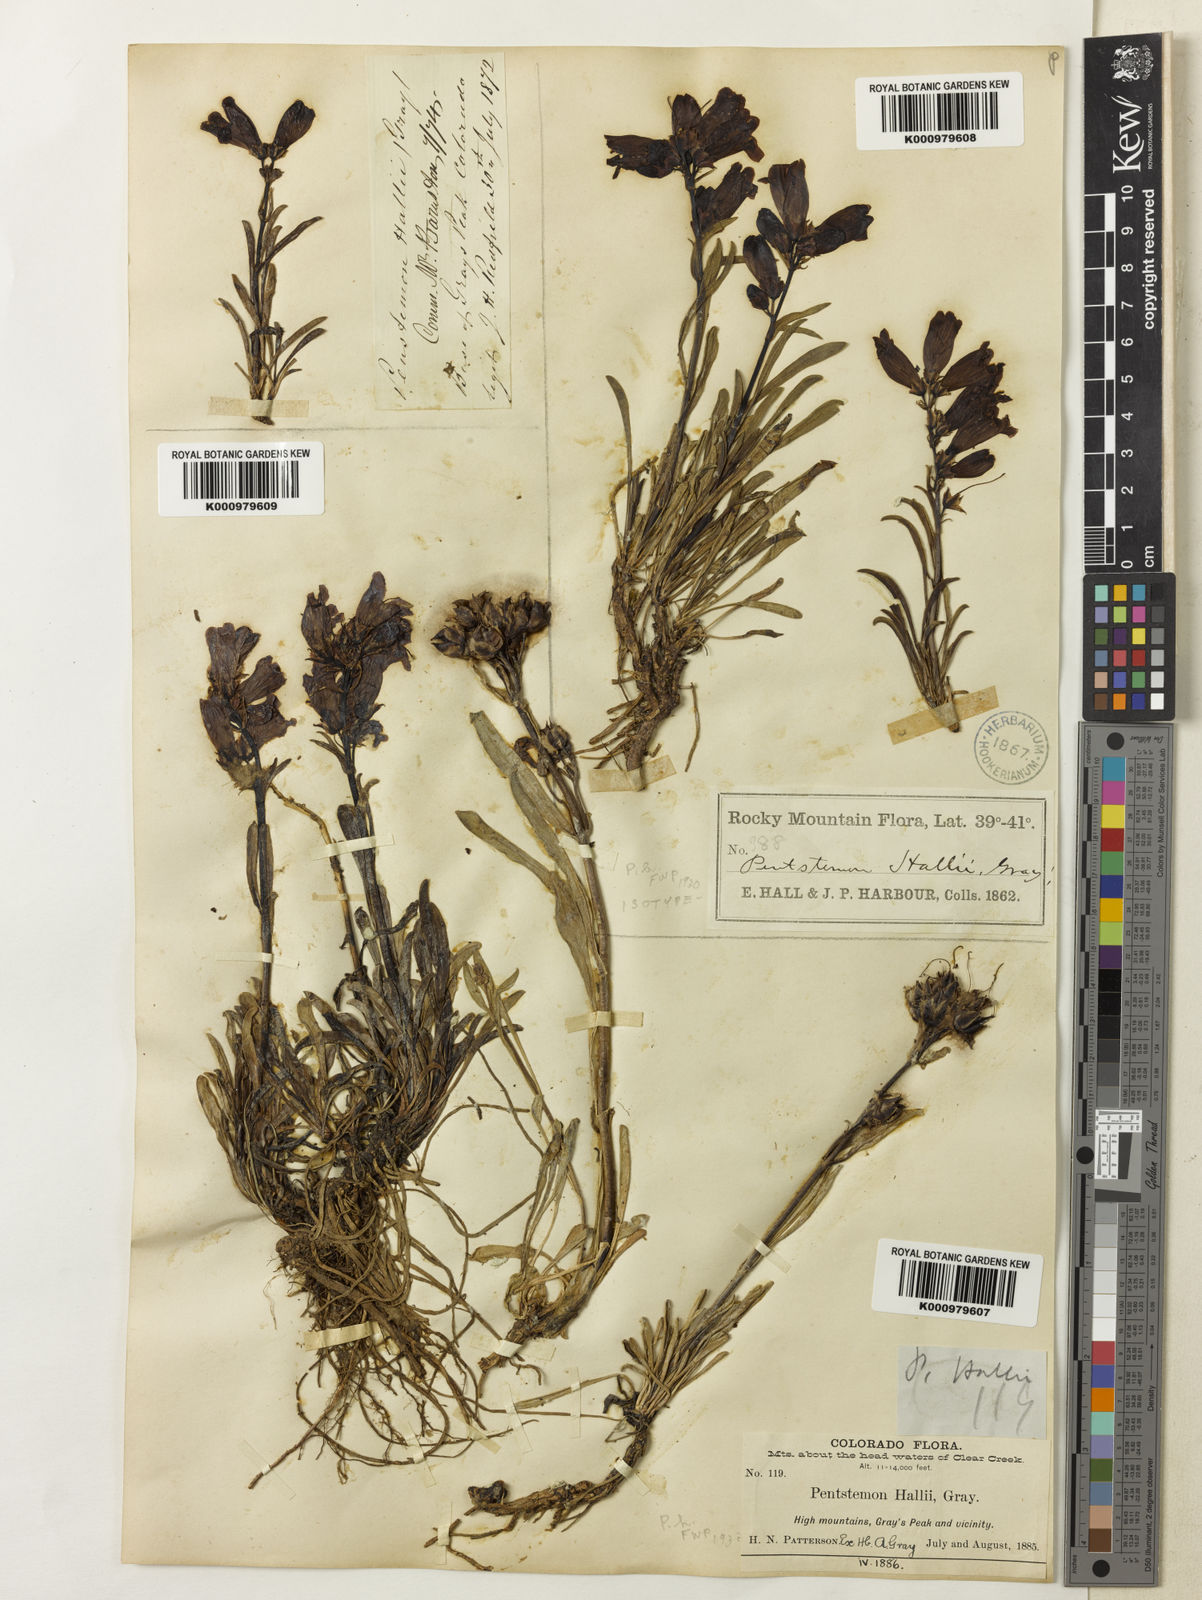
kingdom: Plantae
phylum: Tracheophyta
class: Magnoliopsida
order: Lamiales
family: Plantaginaceae
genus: Penstemon
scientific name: Penstemon hallii
